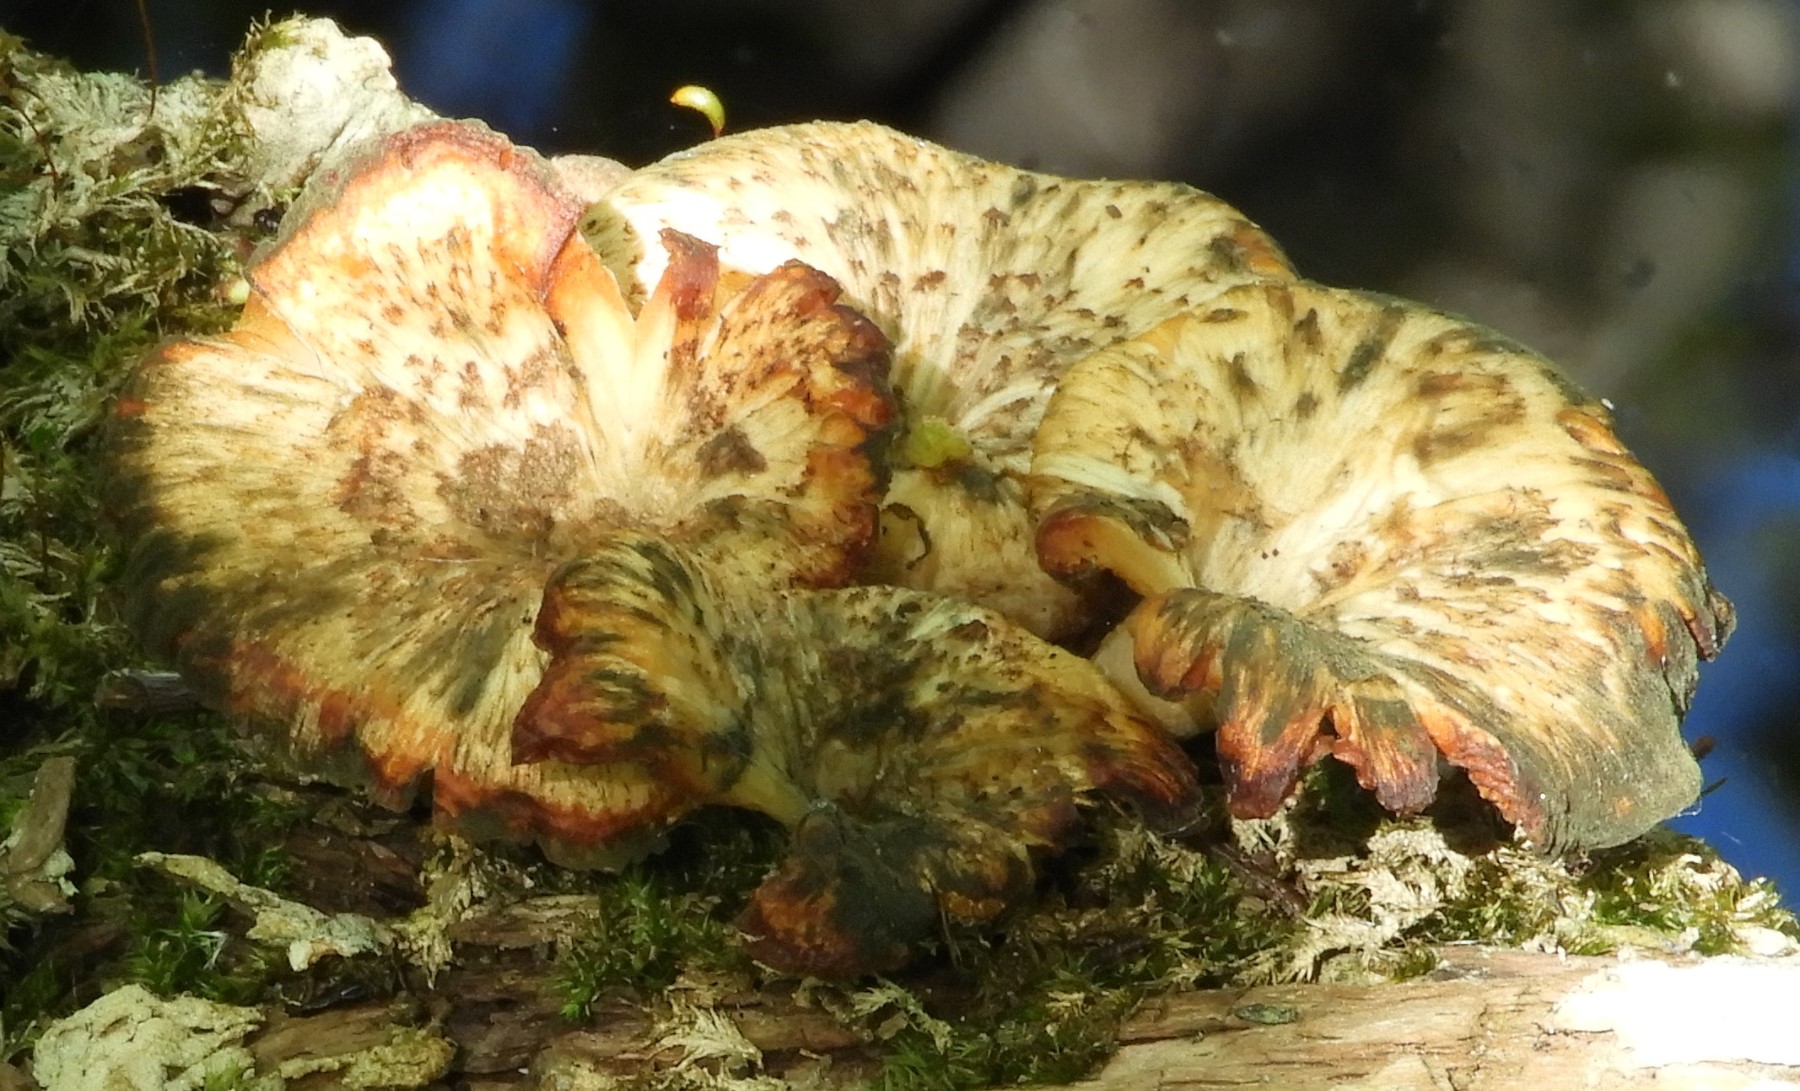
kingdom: Fungi
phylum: Basidiomycota
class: Agaricomycetes
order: Polyporales
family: Polyporaceae
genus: Lentinus
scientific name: Lentinus tigrinus
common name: tigerhat
